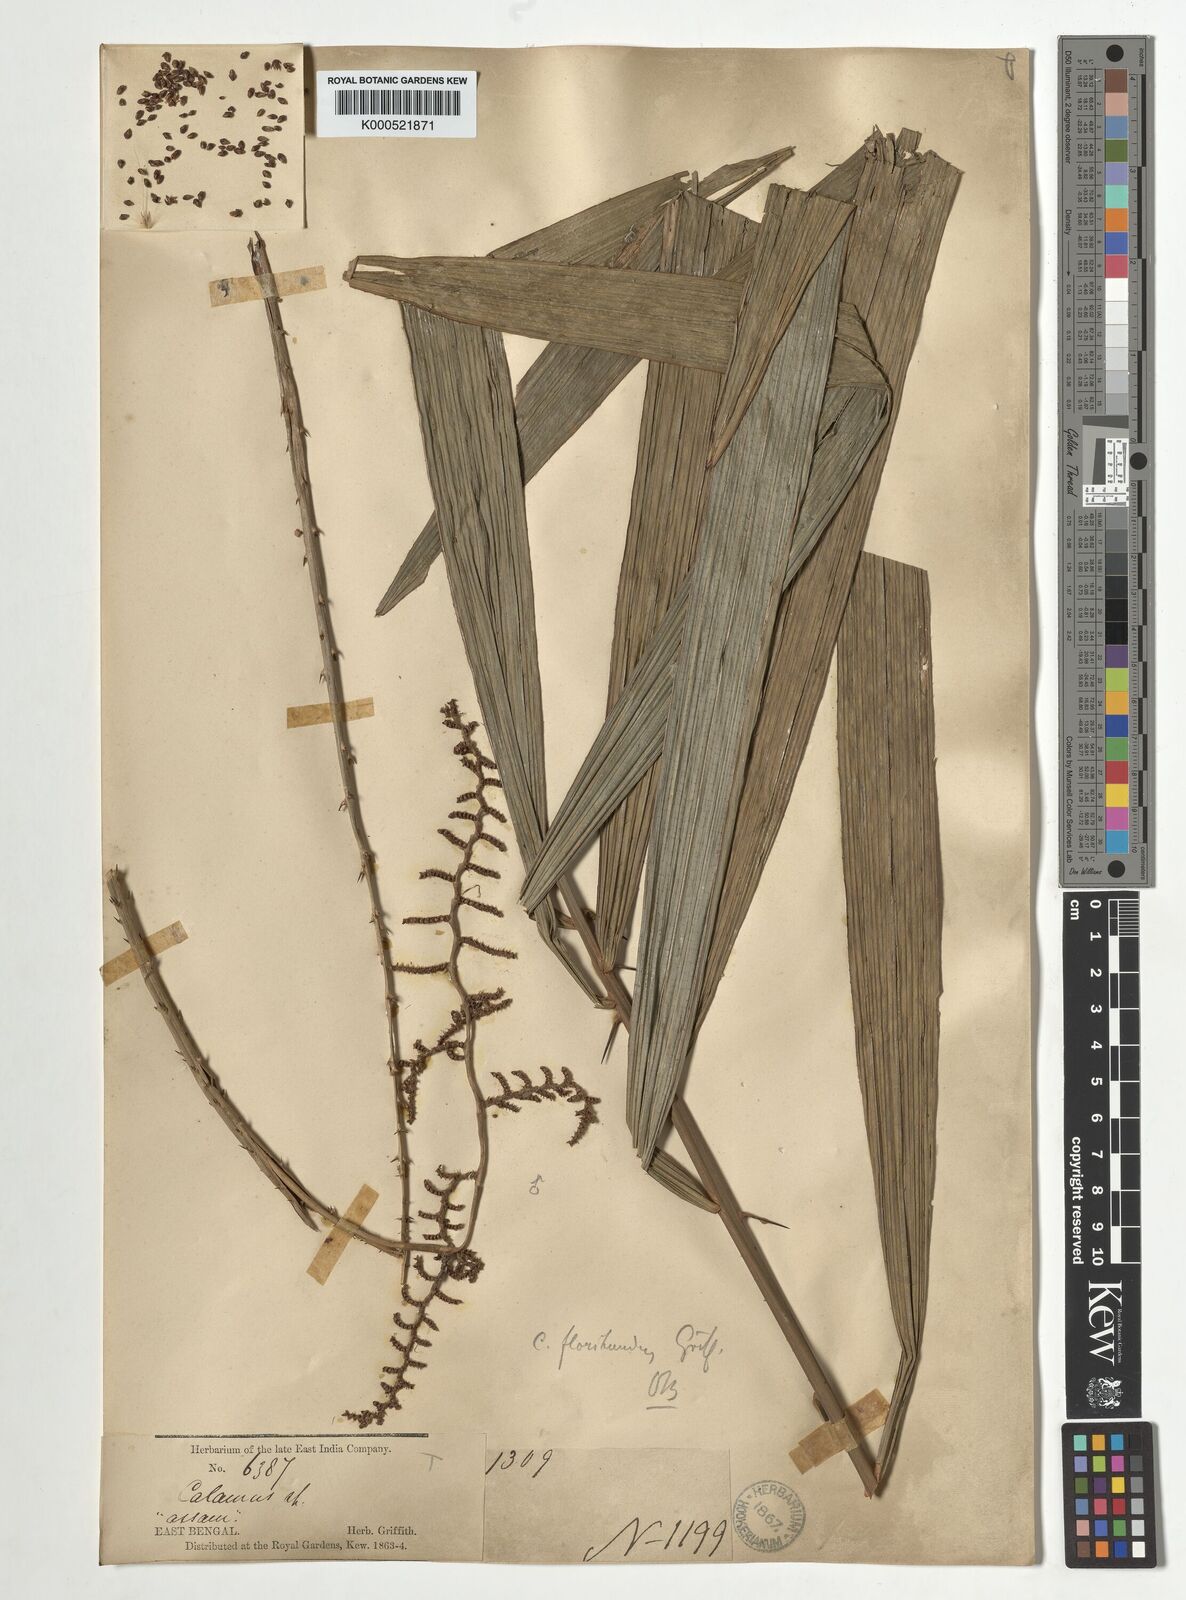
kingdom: Plantae
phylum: Tracheophyta
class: Liliopsida
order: Arecales
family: Arecaceae
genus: Calamus
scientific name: Calamus floribundus
